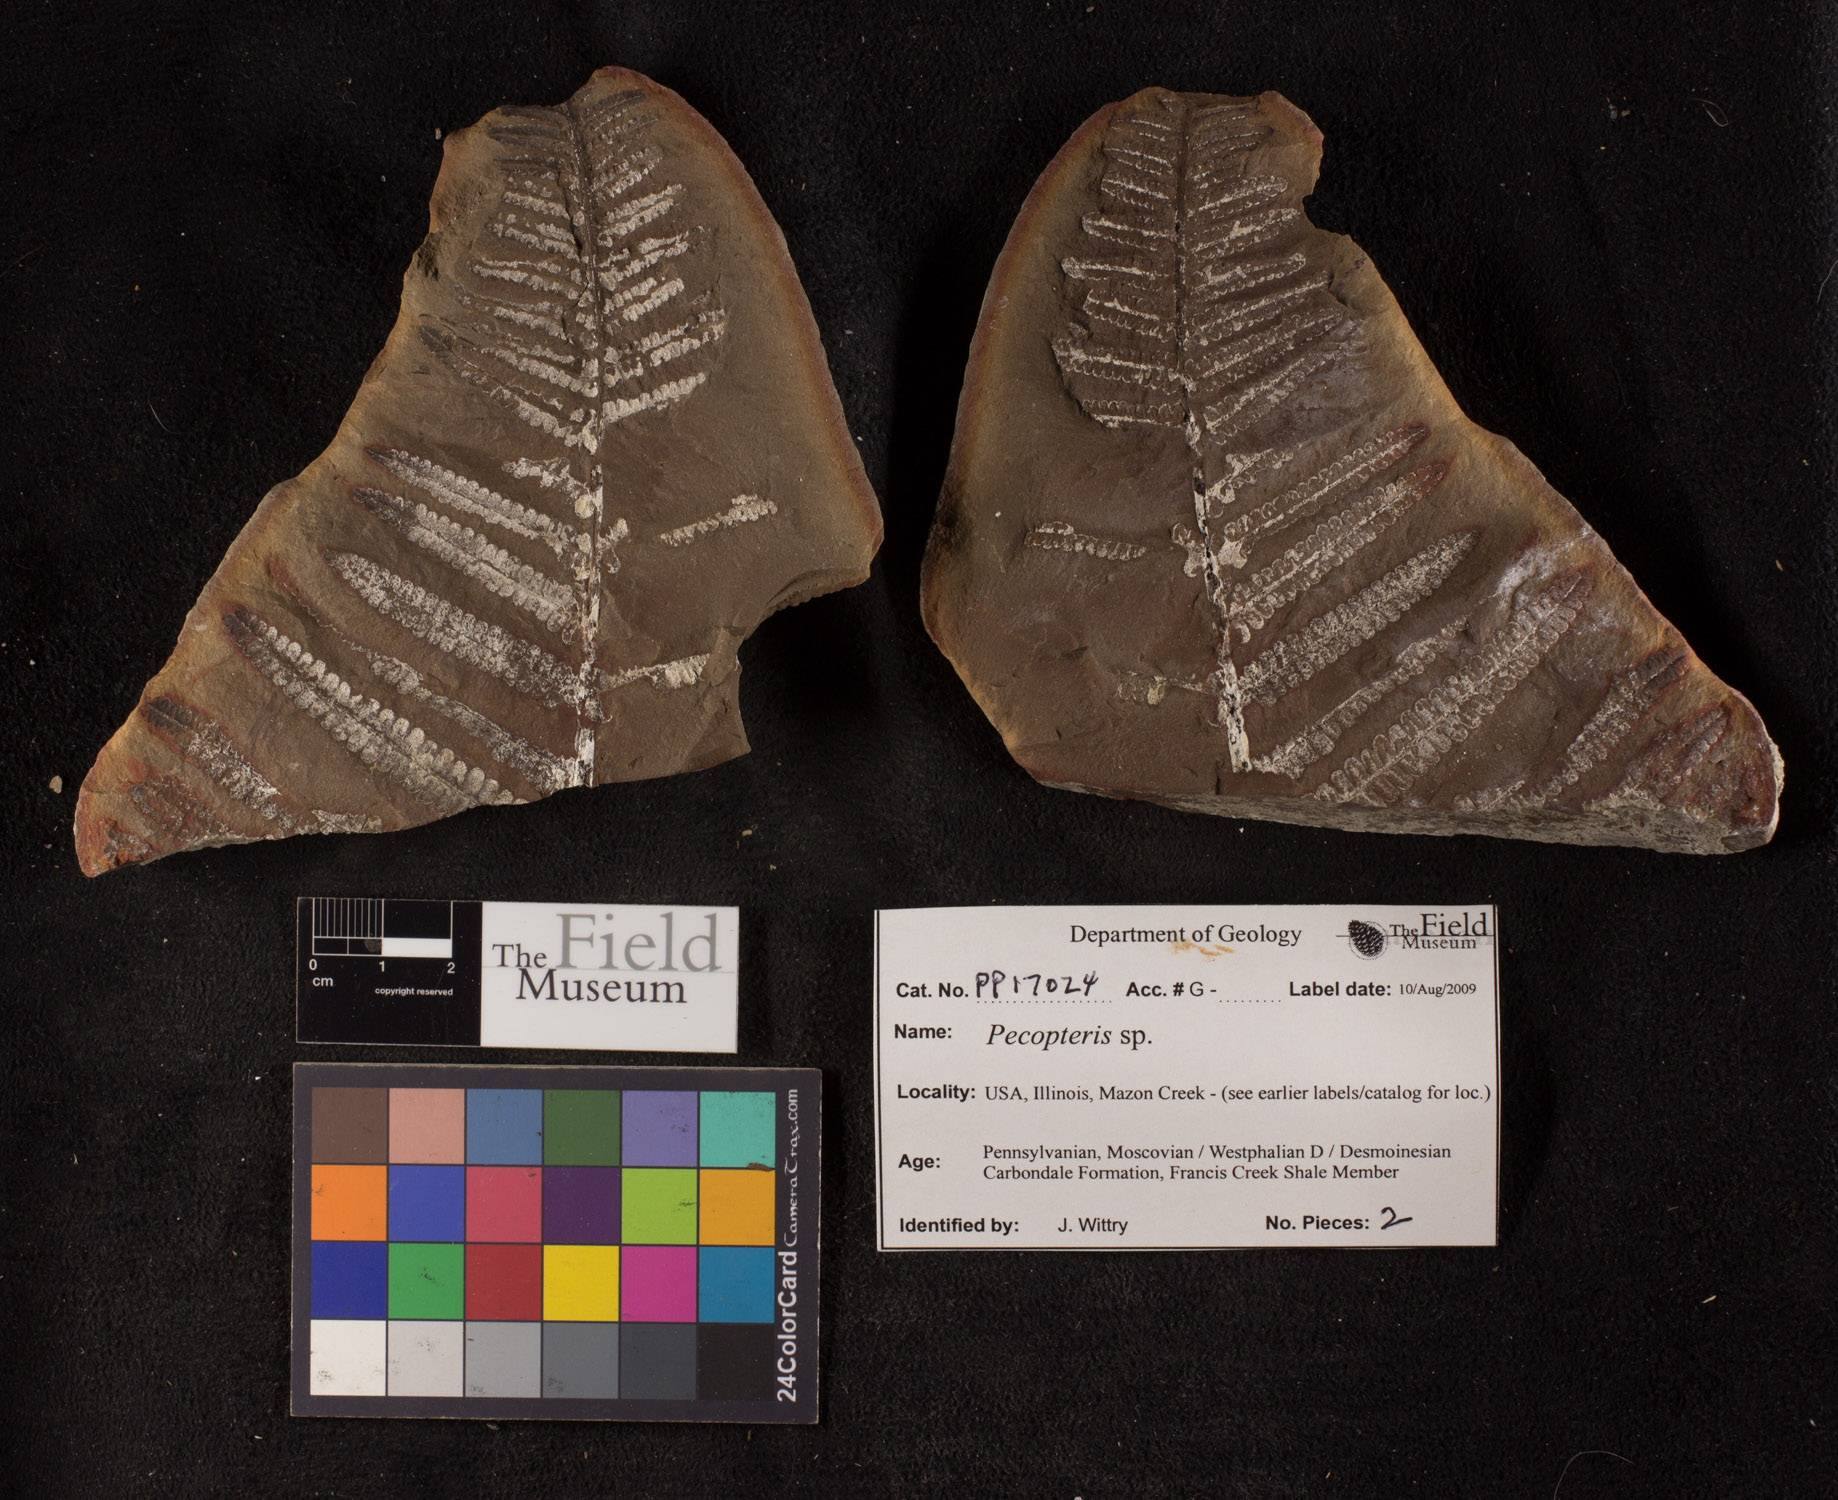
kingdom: Plantae
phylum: Tracheophyta
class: Polypodiopsida
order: Marattiales
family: Asterothecaceae
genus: Pecopteris
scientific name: Pecopteris
